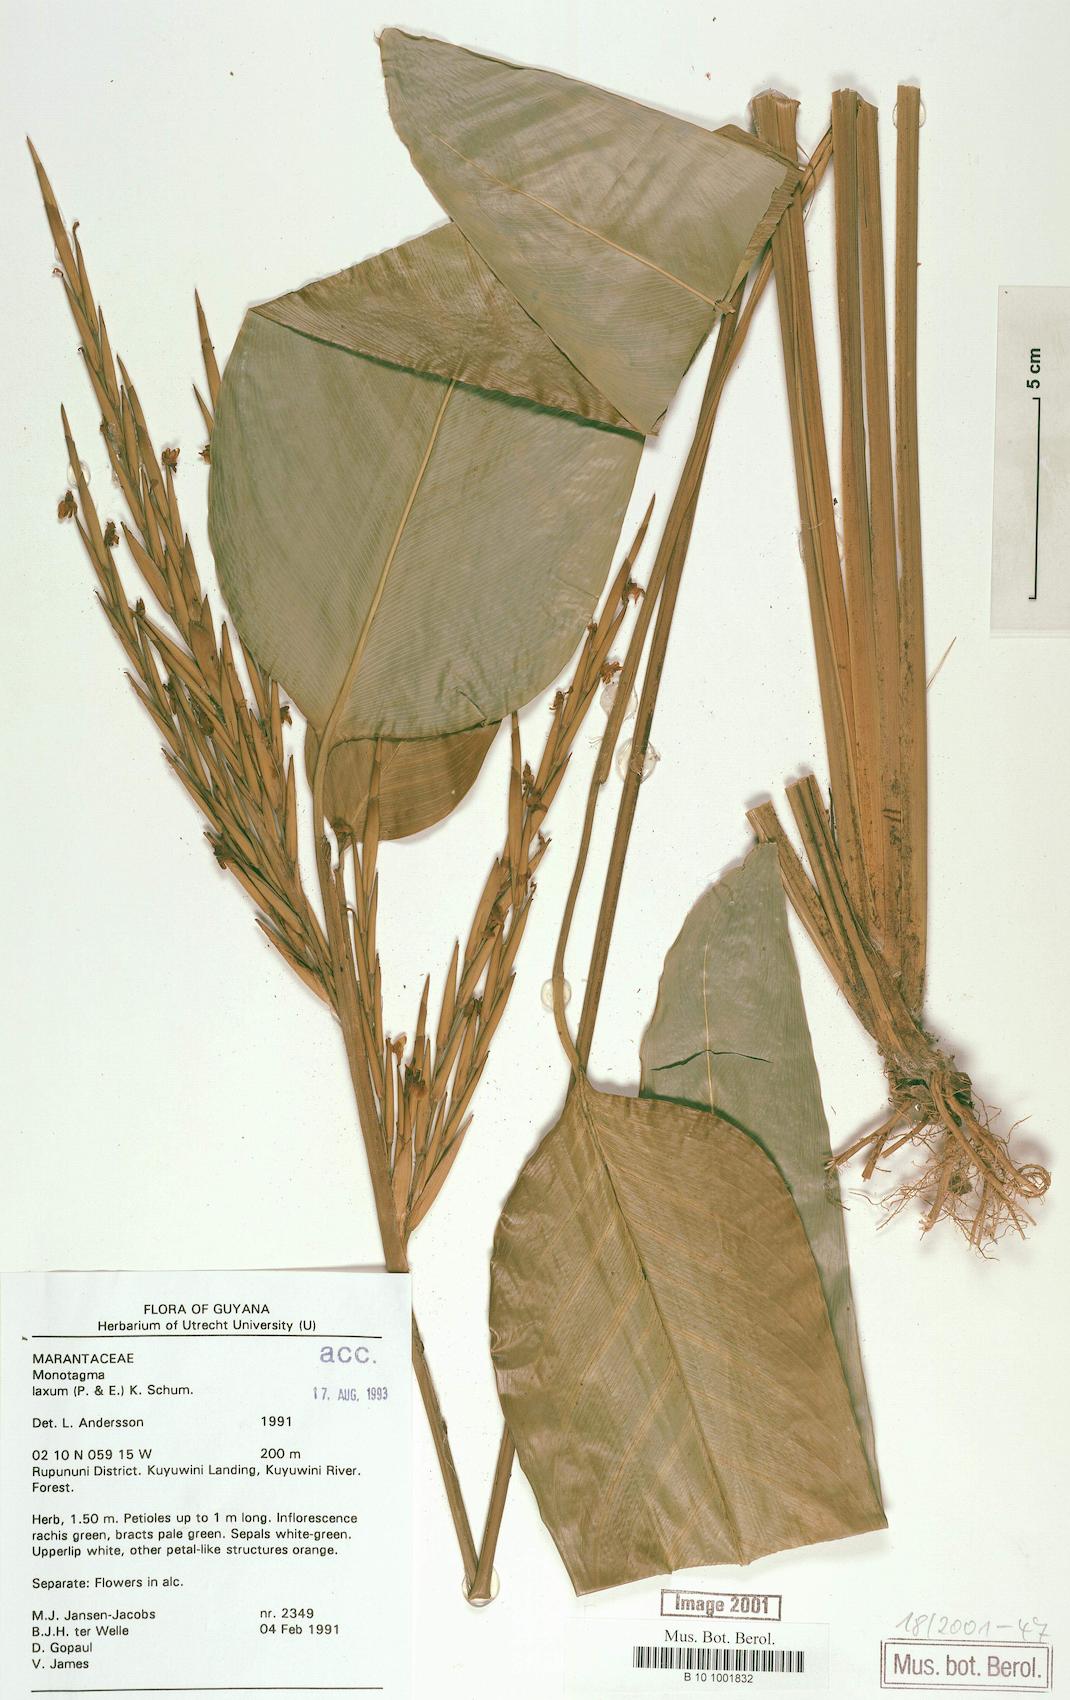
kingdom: Plantae
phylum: Tracheophyta
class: Liliopsida
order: Zingiberales
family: Marantaceae
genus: Monotagma
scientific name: Monotagma laxum
